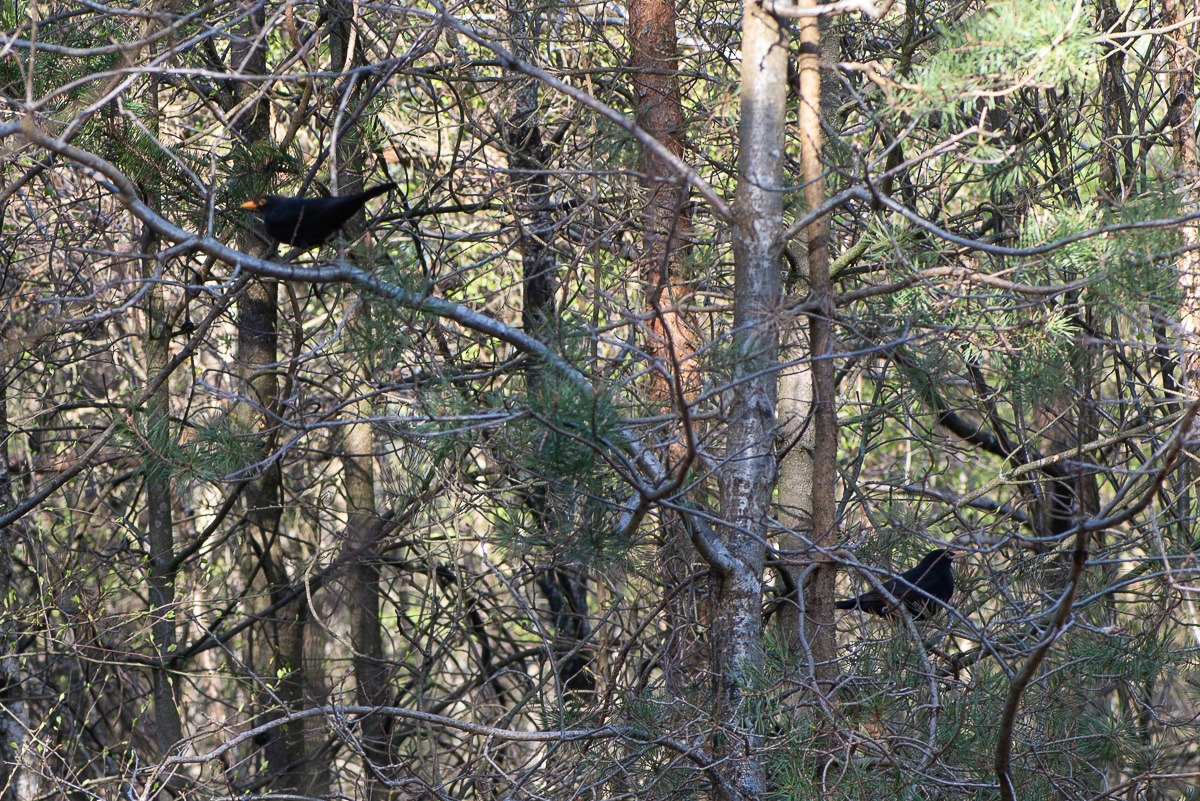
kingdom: Animalia
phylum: Chordata
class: Aves
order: Passeriformes
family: Turdidae
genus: Turdus
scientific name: Turdus merula
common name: Solsort
